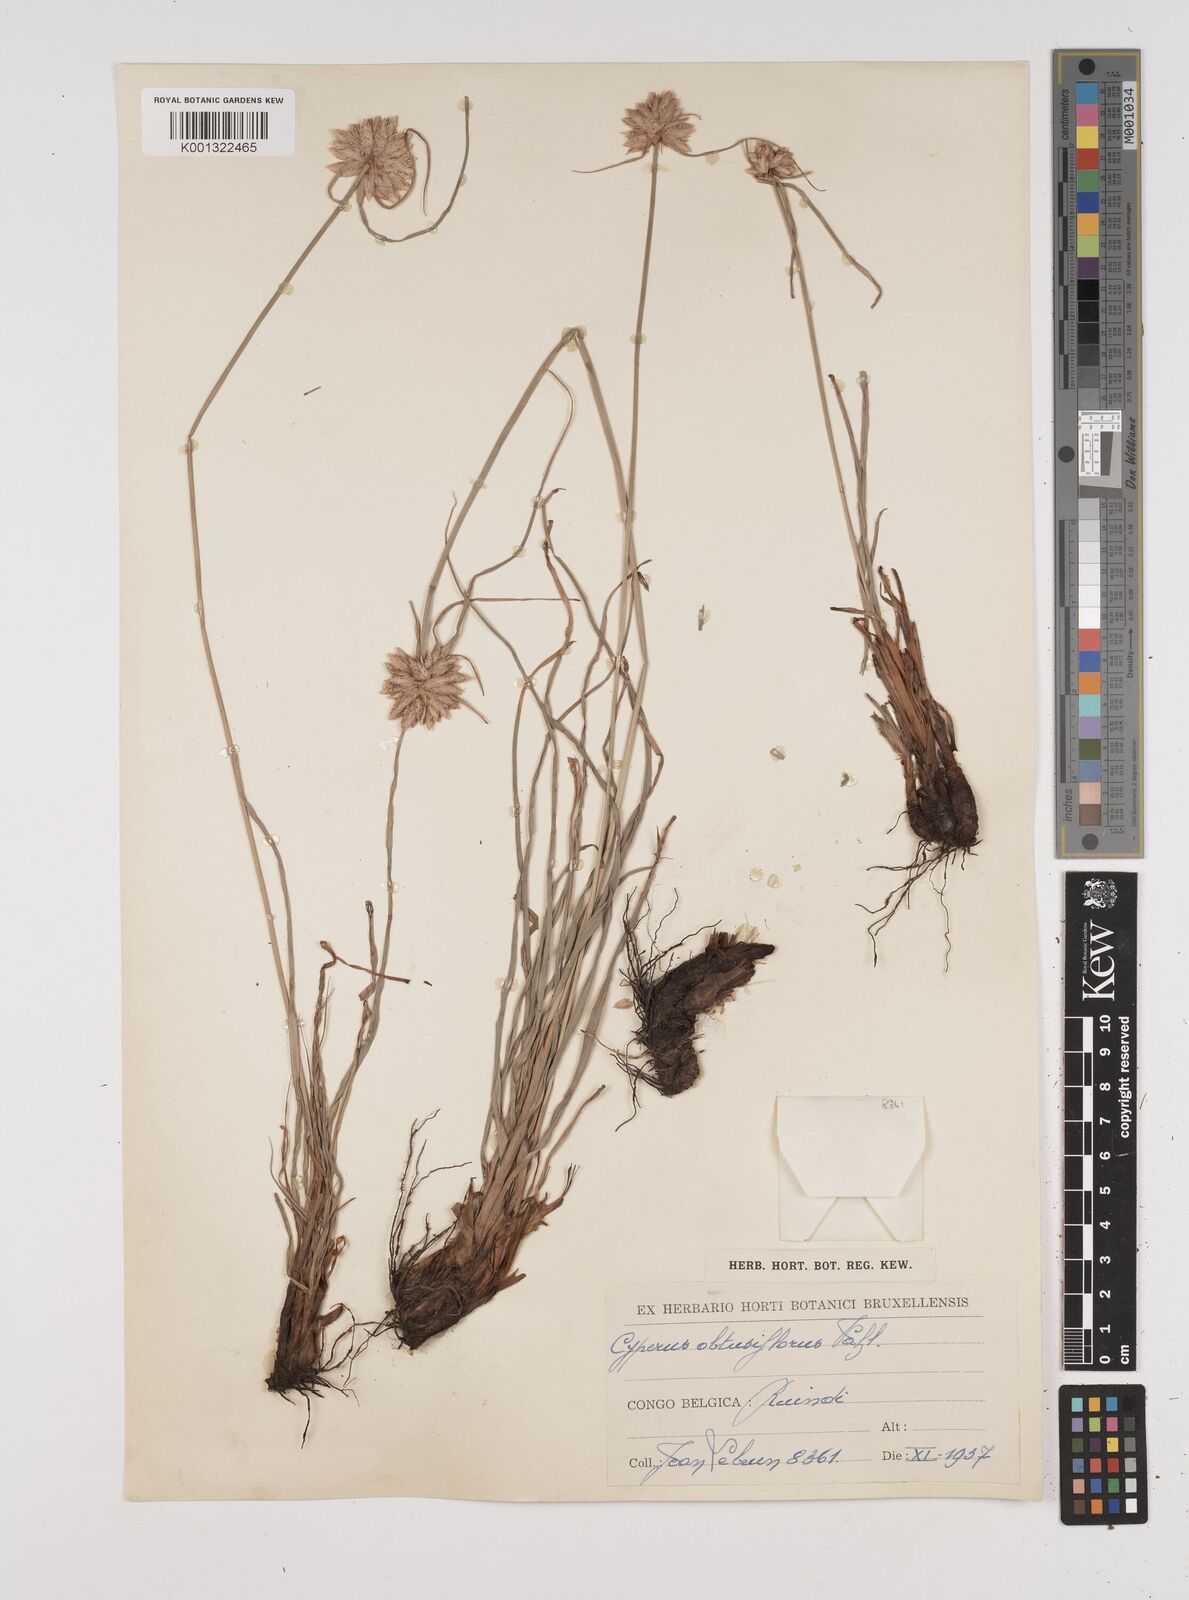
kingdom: Plantae
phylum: Tracheophyta
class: Liliopsida
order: Poales
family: Cyperaceae
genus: Cyperus
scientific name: Cyperus niveus
